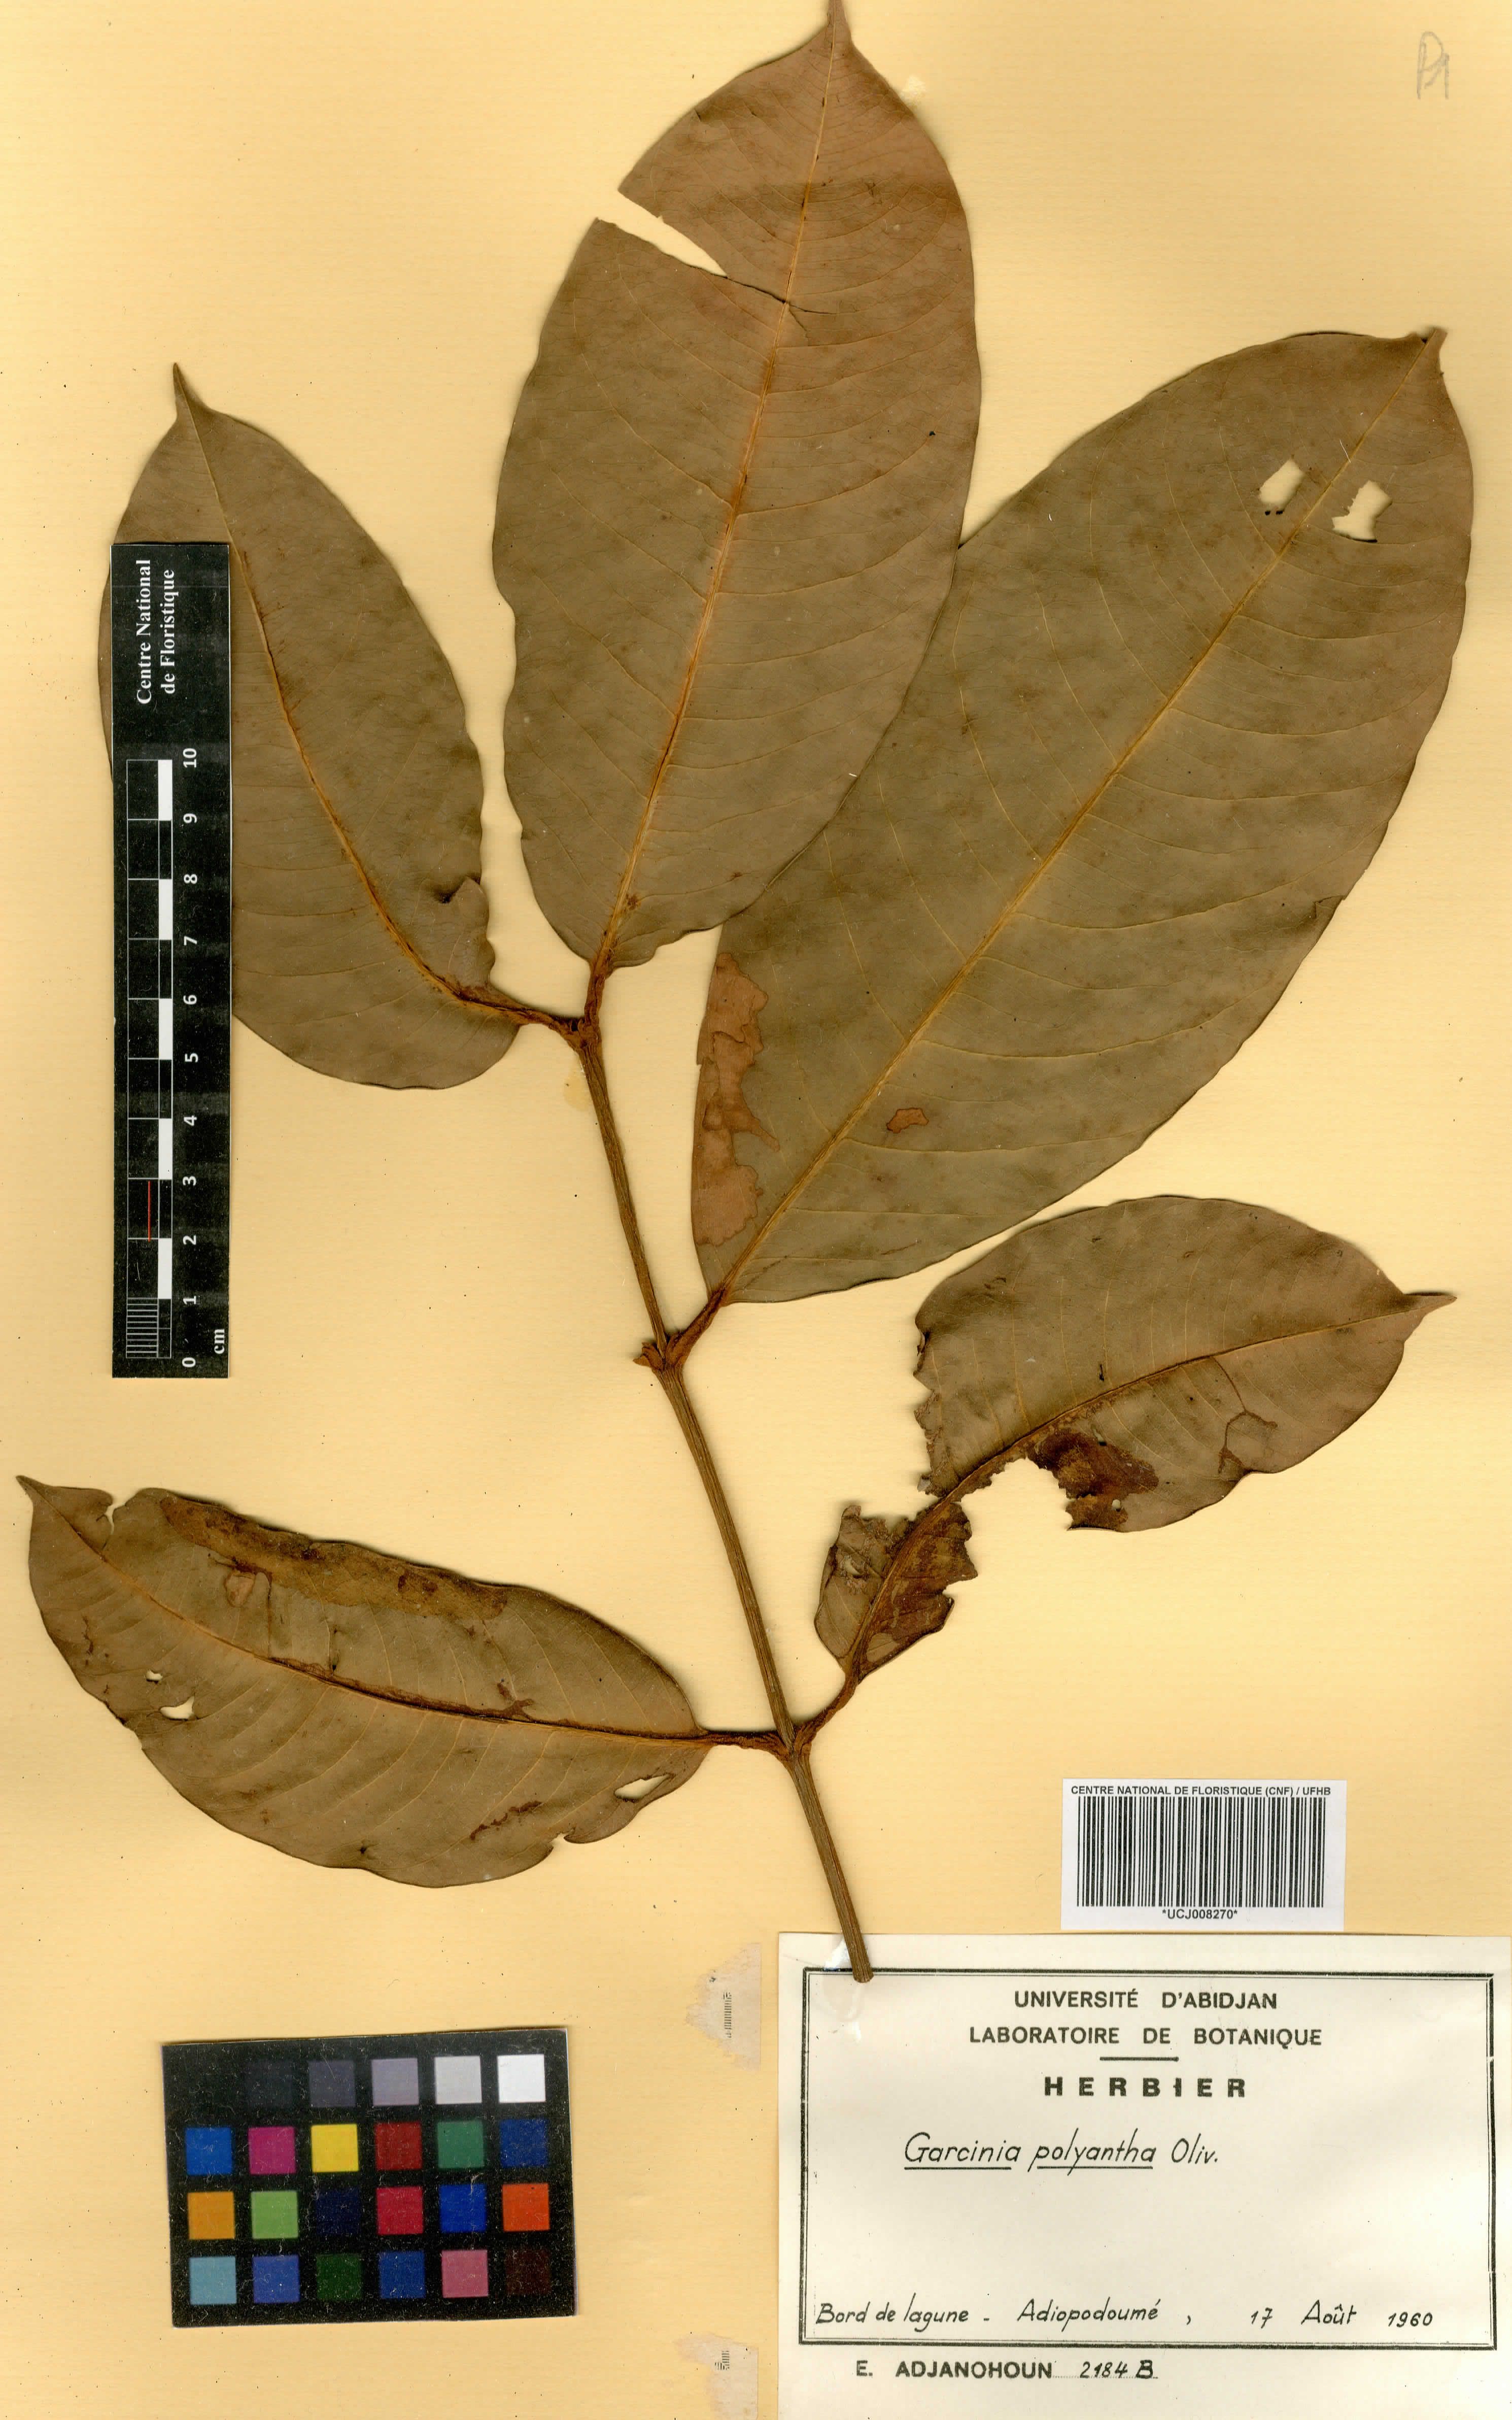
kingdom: Plantae
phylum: Tracheophyta
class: Magnoliopsida
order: Malpighiales
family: Clusiaceae
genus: Garcinia
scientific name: Garcinia smeathmannii
